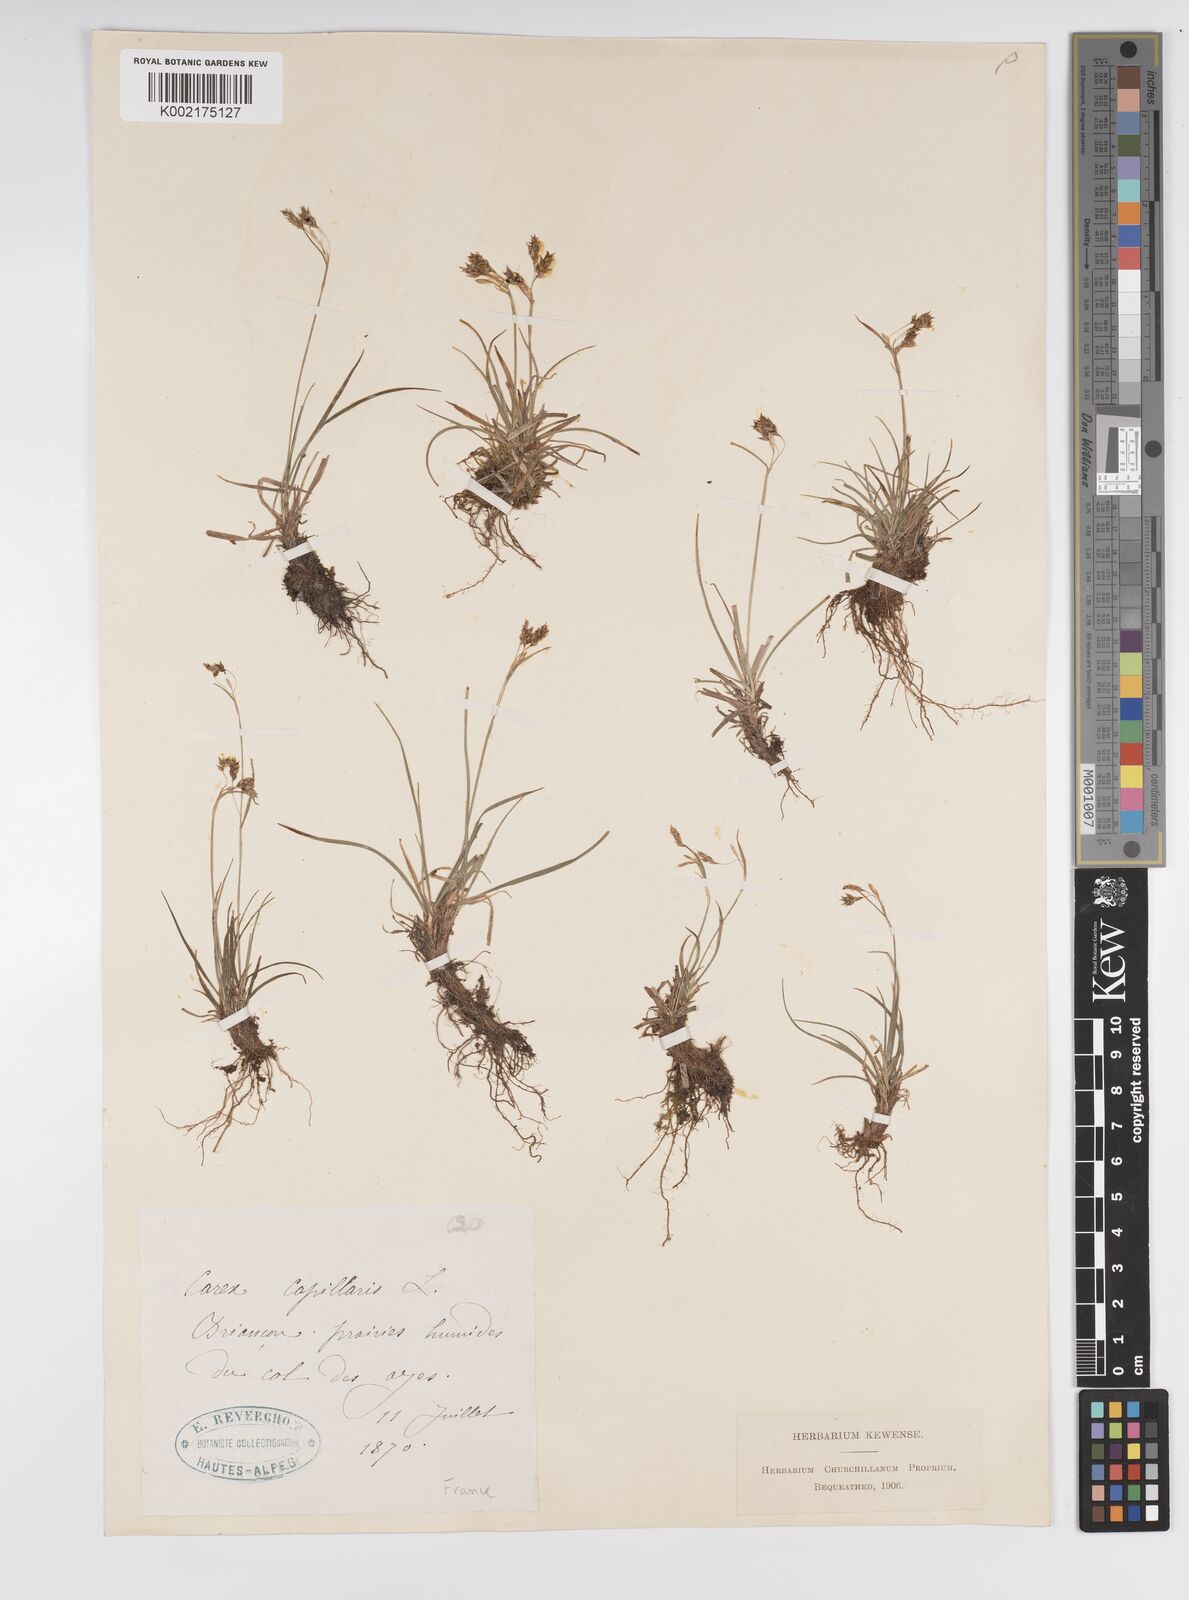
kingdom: Plantae
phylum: Tracheophyta
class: Liliopsida
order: Poales
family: Cyperaceae
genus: Carex
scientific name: Carex capillaris
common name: Hair sedge
